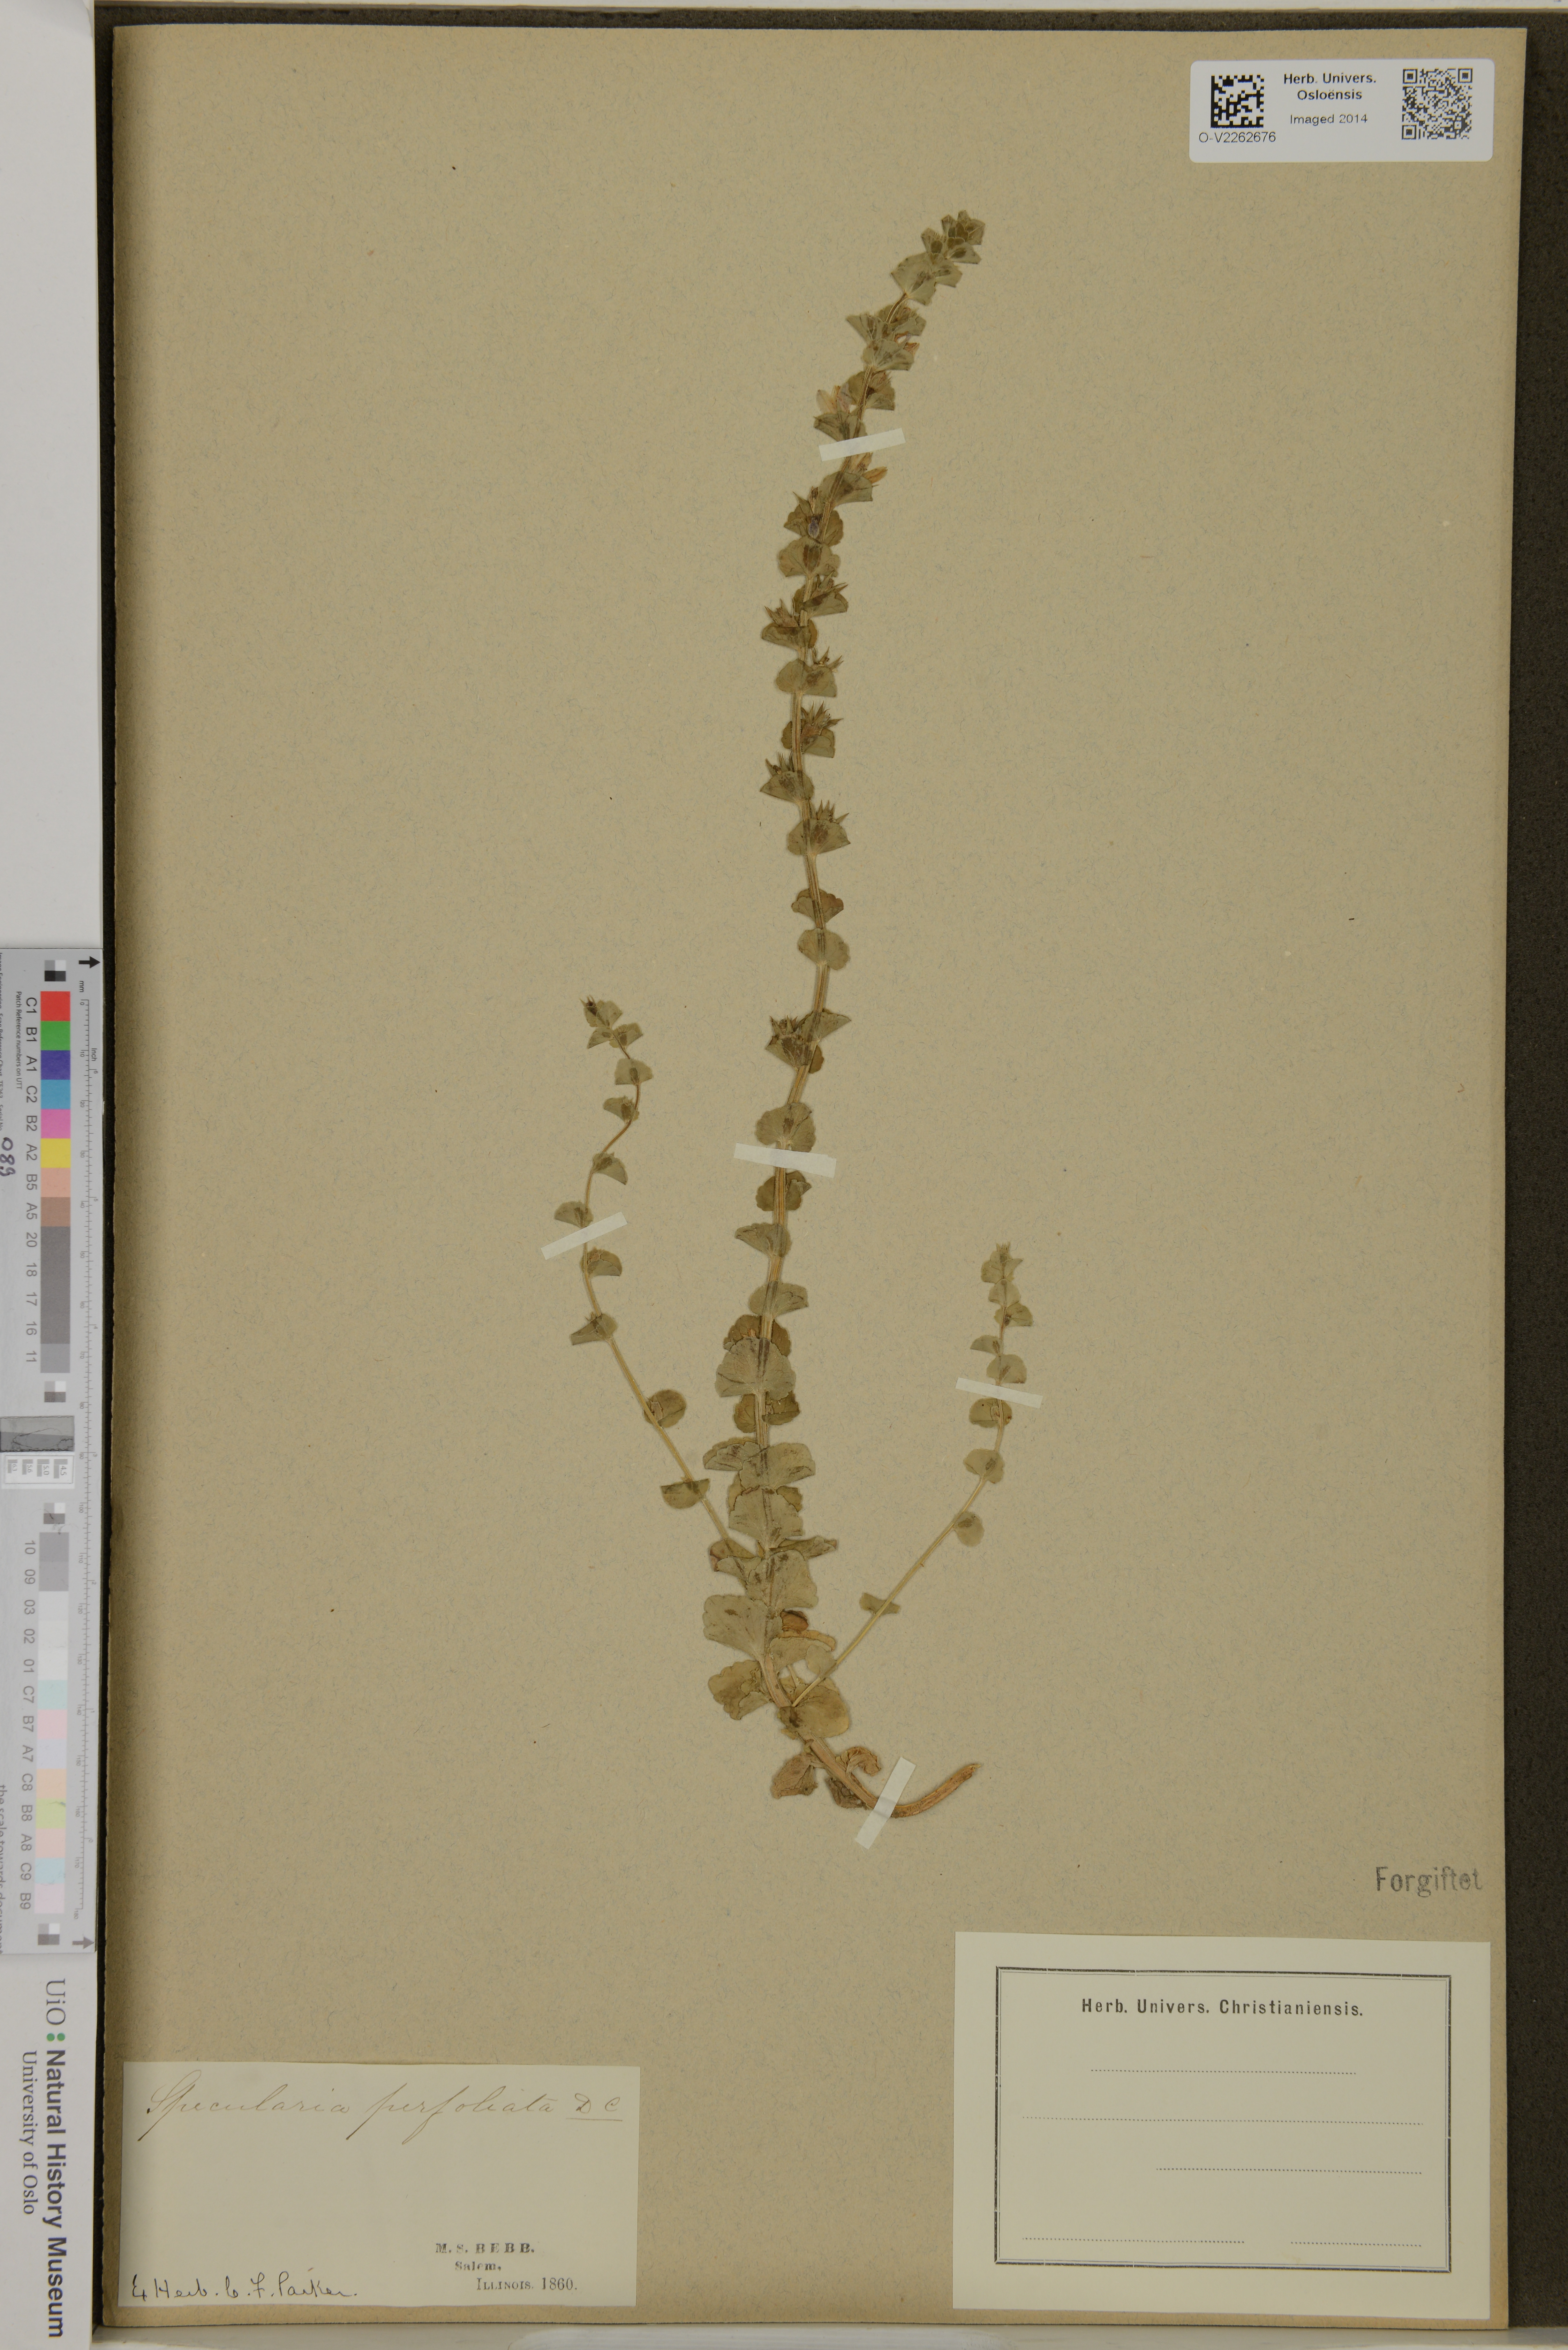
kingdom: Plantae
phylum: Tracheophyta
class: Magnoliopsida
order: Asterales
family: Campanulaceae
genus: Triodanis
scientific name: Triodanis perfoliata
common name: Clasping venus' looking-glass
